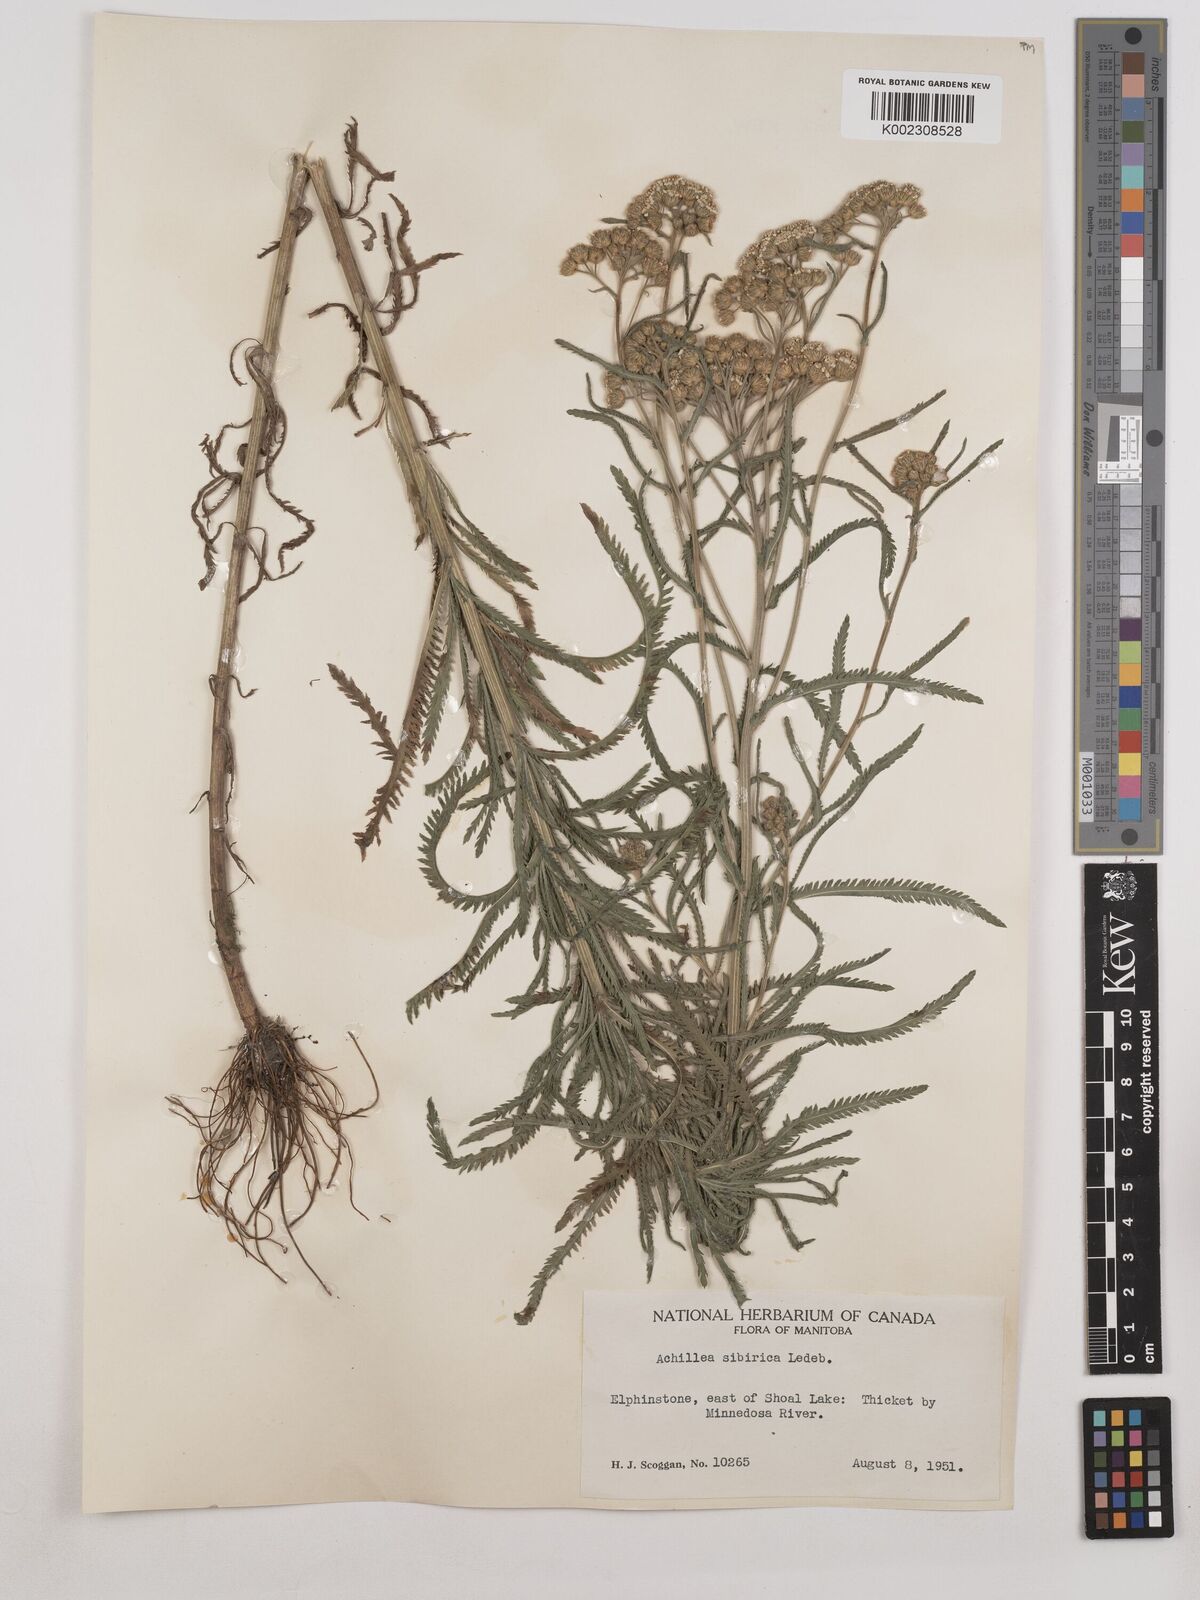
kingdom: Plantae
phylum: Tracheophyta
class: Magnoliopsida
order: Asterales
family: Asteraceae
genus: Achillea
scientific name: Achillea alpina
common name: Siberian yarrow
